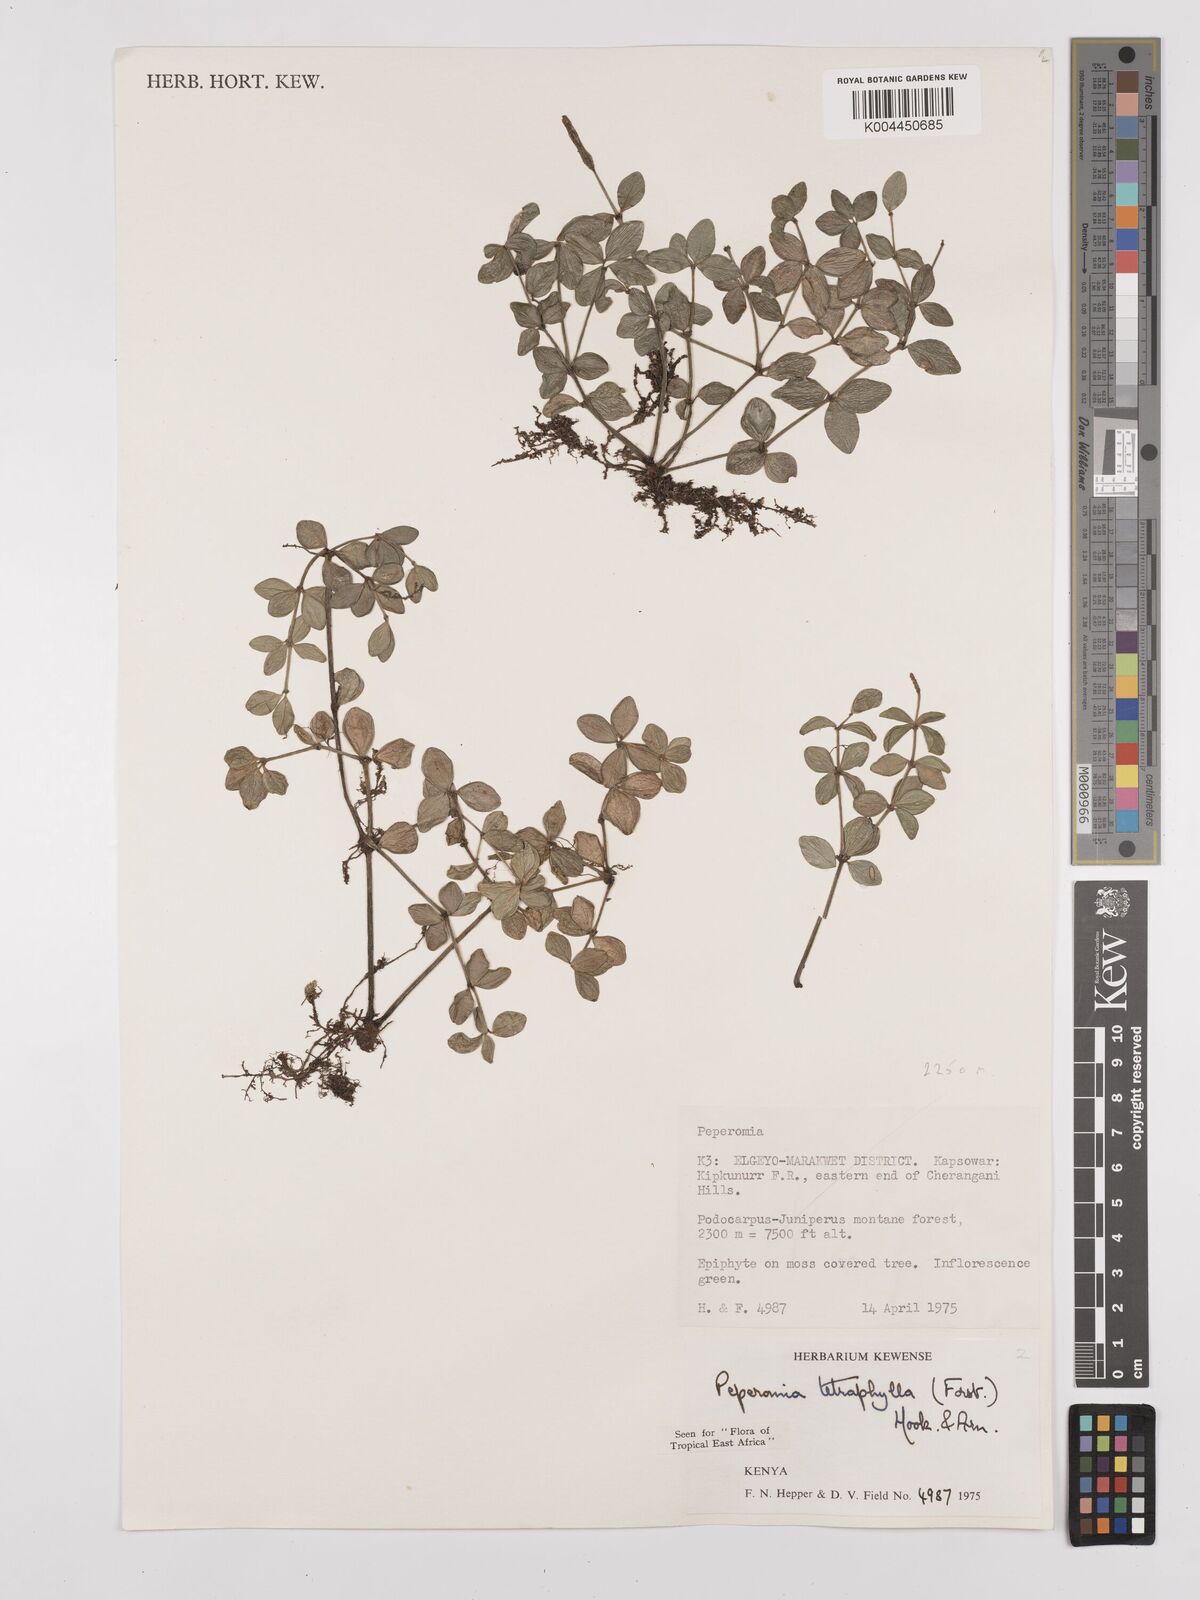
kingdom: Plantae
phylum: Tracheophyta
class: Magnoliopsida
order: Piperales
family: Piperaceae
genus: Peperomia
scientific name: Peperomia tetraphylla
